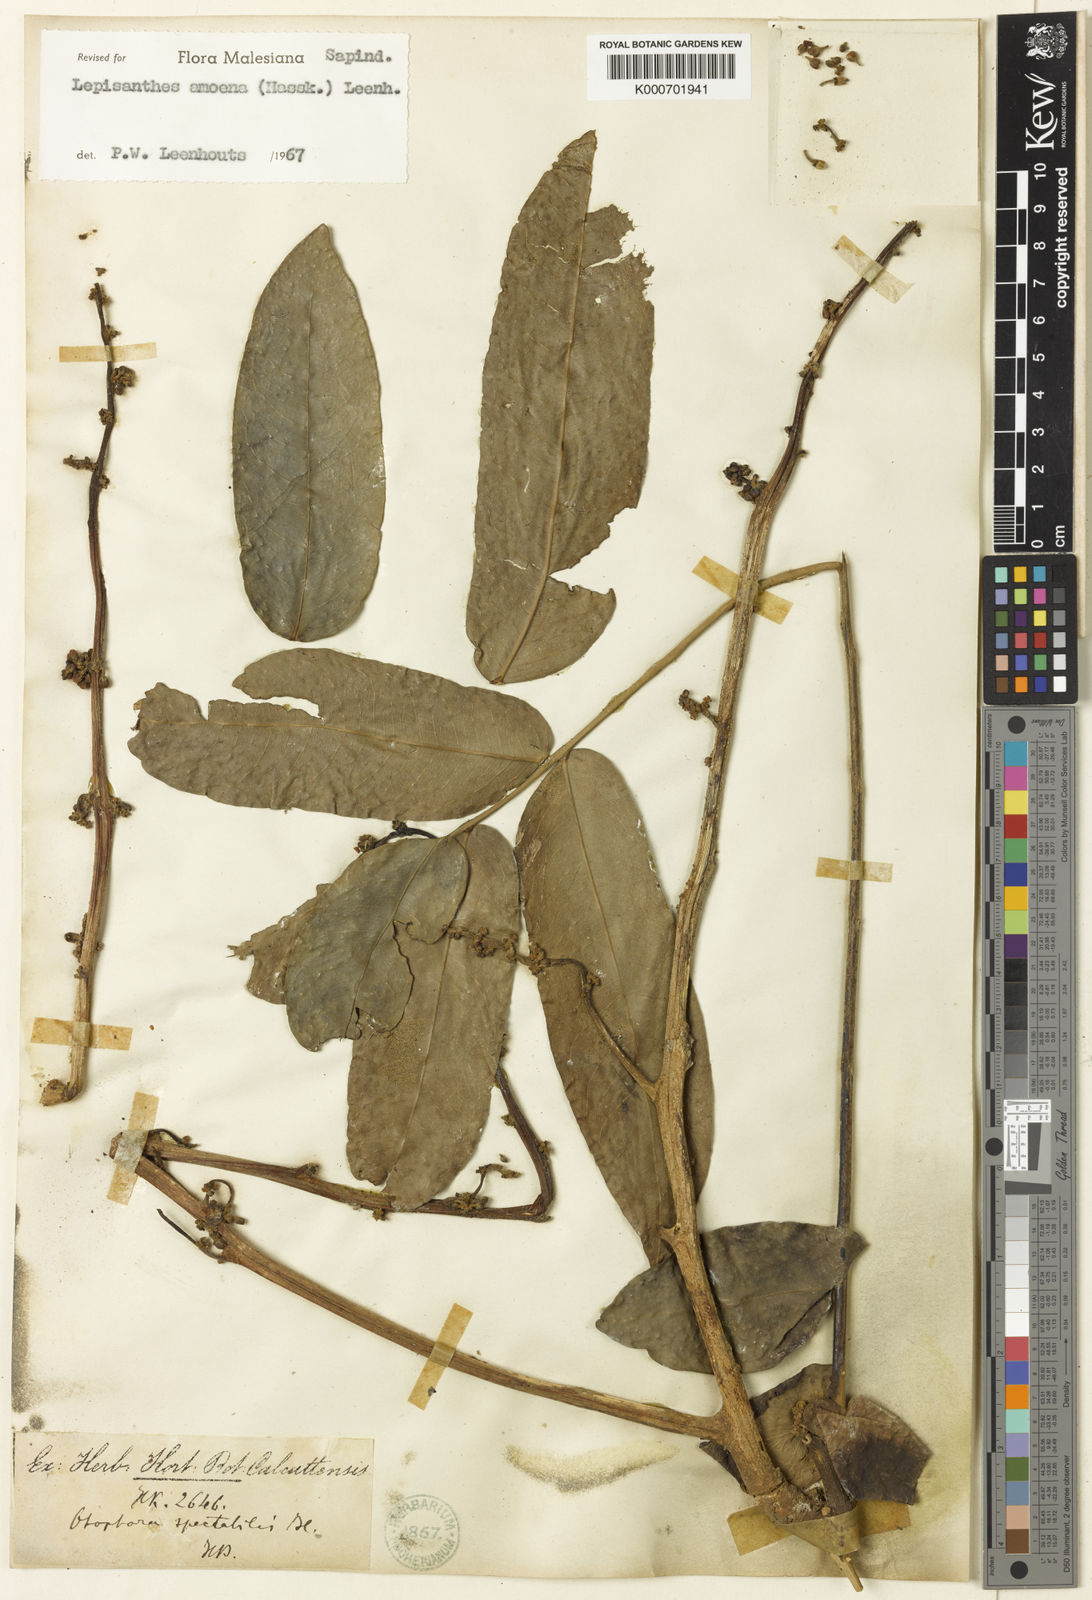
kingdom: Plantae
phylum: Tracheophyta
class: Magnoliopsida
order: Sapindales
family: Sapindaceae
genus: Lepisanthes
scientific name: Lepisanthes amoena
